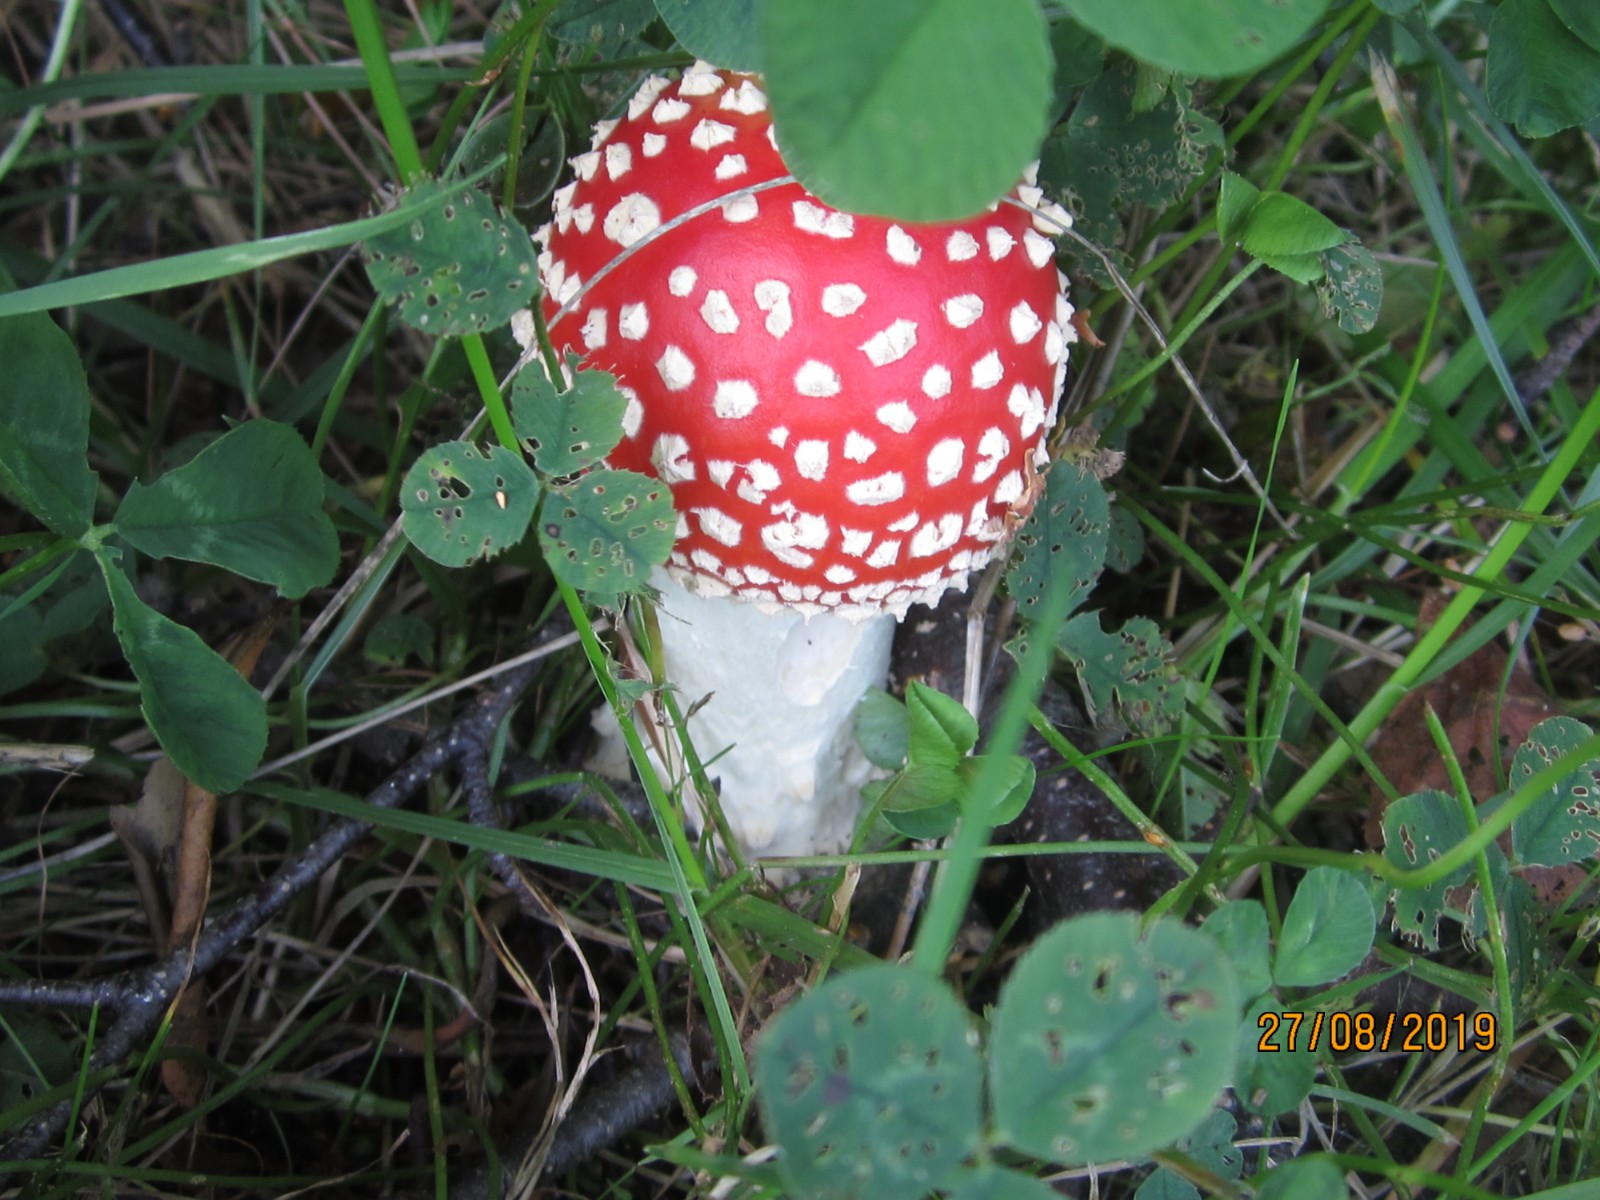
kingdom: Fungi
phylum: Basidiomycota
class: Agaricomycetes
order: Agaricales
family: Amanitaceae
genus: Amanita
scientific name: Amanita muscaria
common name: rød fluesvamp
